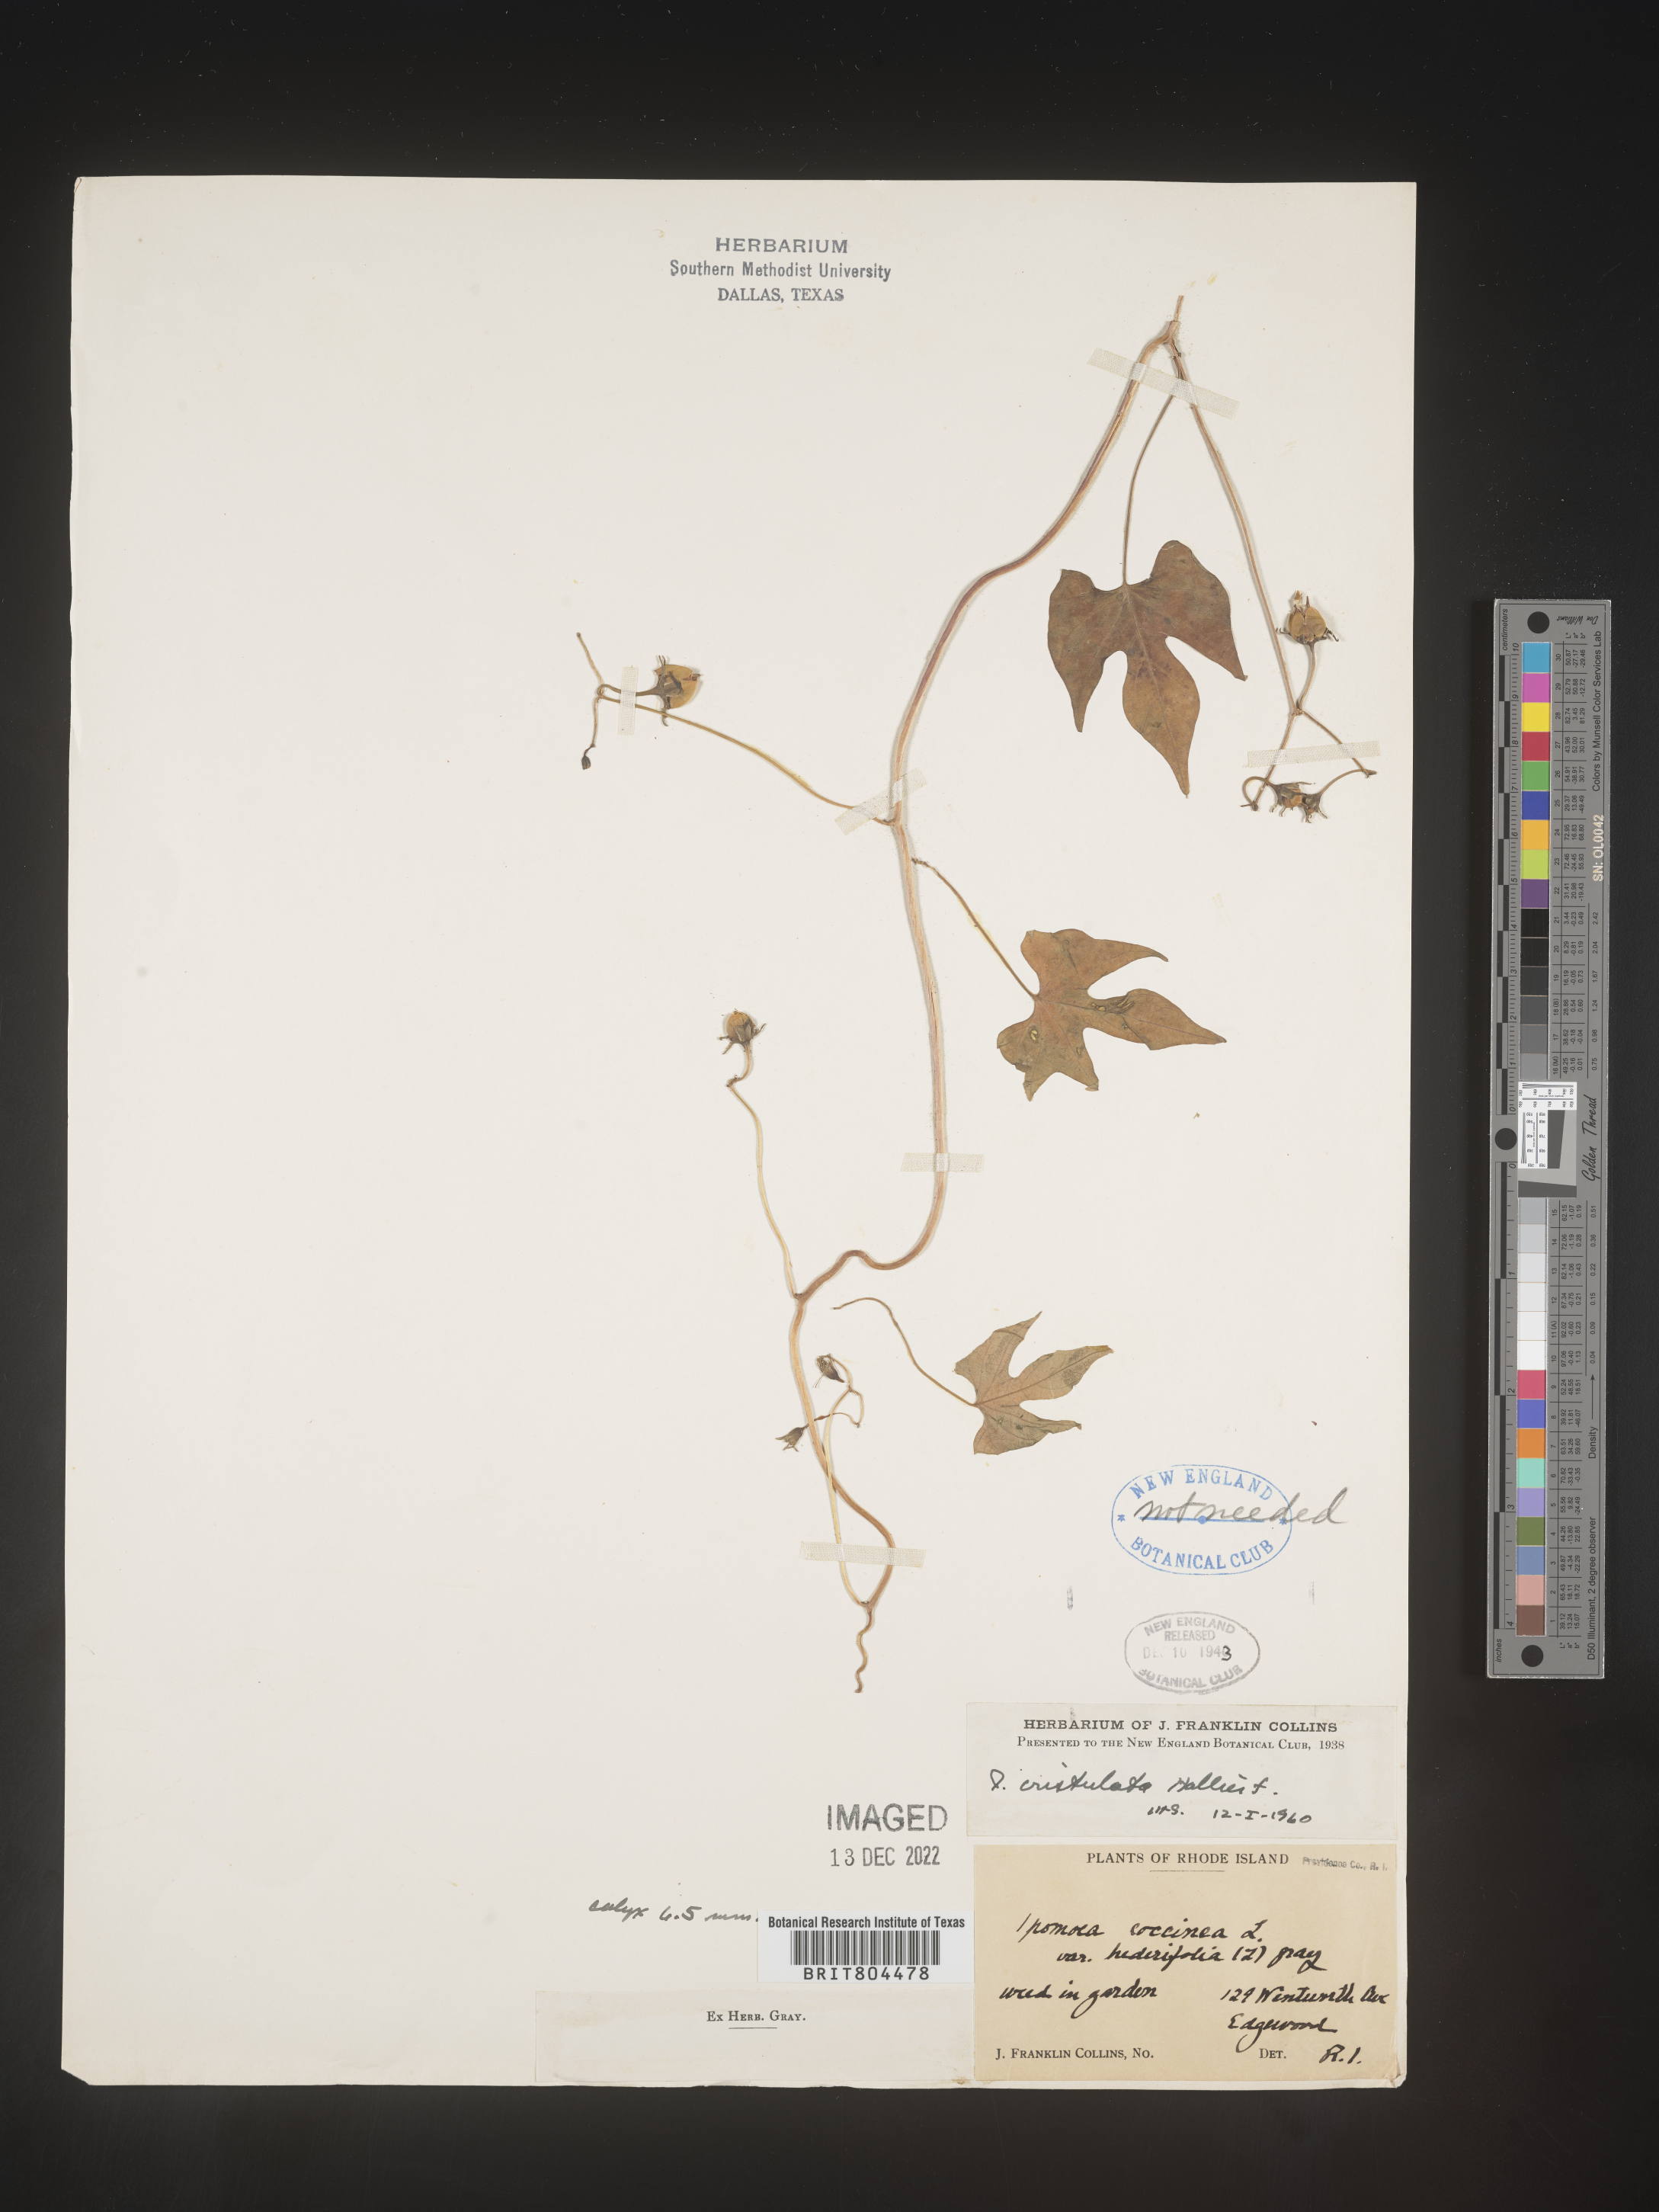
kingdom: Plantae
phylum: Tracheophyta
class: Magnoliopsida
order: Solanales
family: Convolvulaceae
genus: Ipomoea
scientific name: Ipomoea cristulata
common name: Trans-pecos morning-glory
